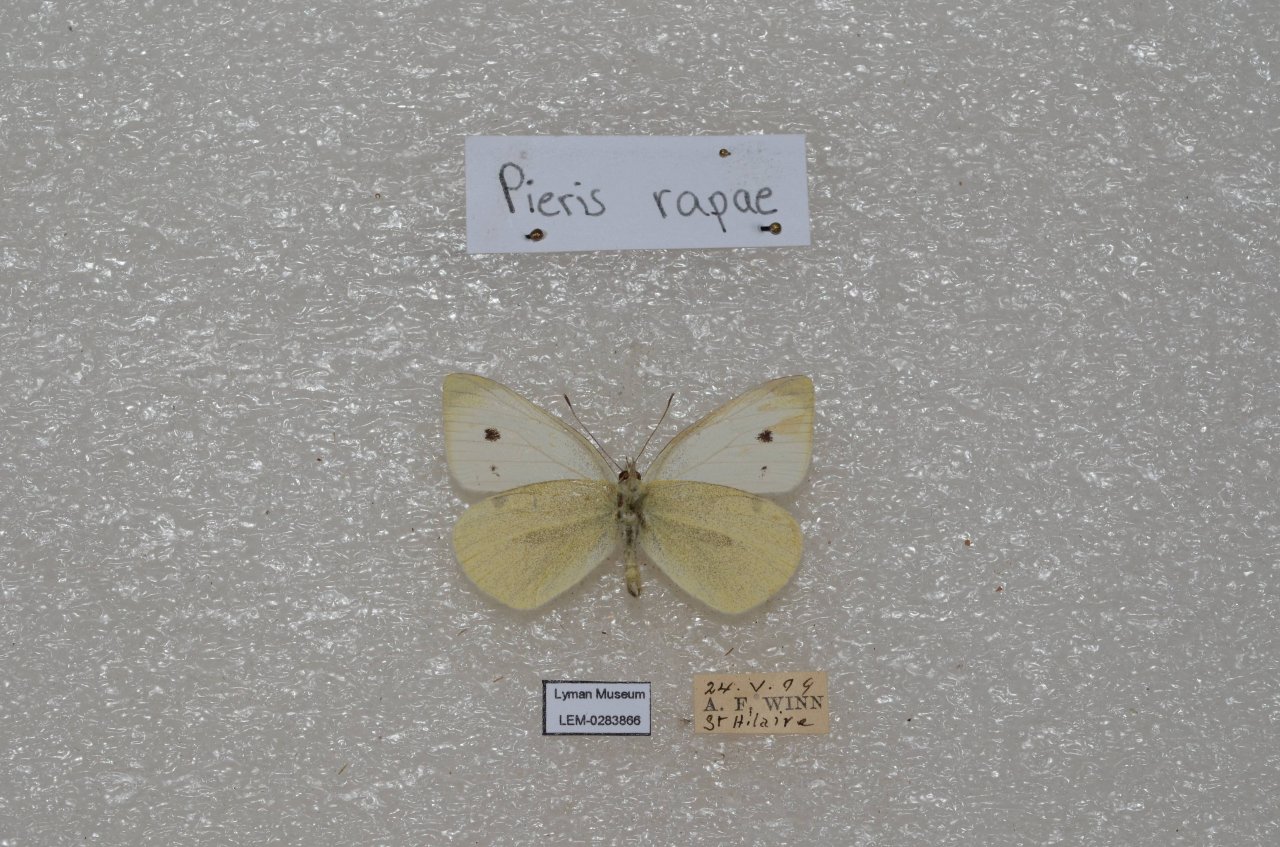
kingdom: Animalia
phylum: Arthropoda
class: Insecta
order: Lepidoptera
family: Pieridae
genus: Pieris
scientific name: Pieris rapae
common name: Cabbage White
